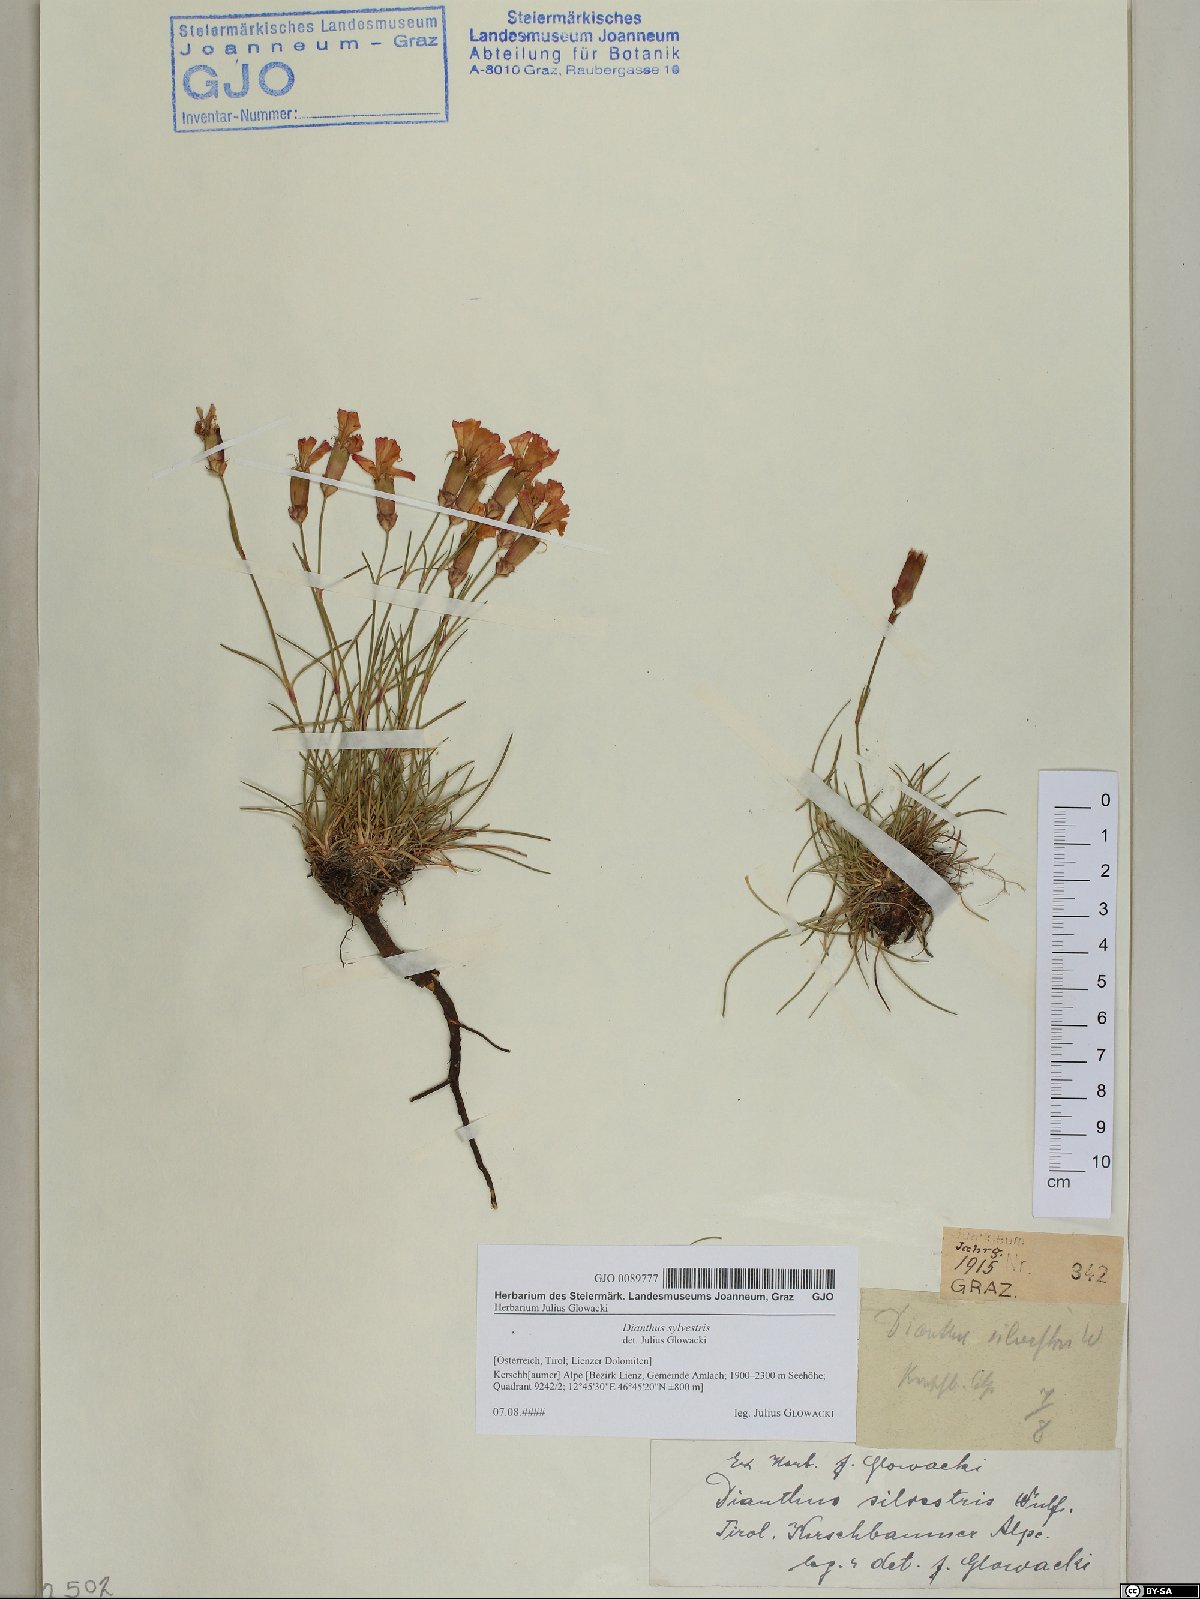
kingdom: Plantae
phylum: Tracheophyta
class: Magnoliopsida
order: Caryophyllales
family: Caryophyllaceae
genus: Dianthus
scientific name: Dianthus sylvestris
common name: Wood pink
